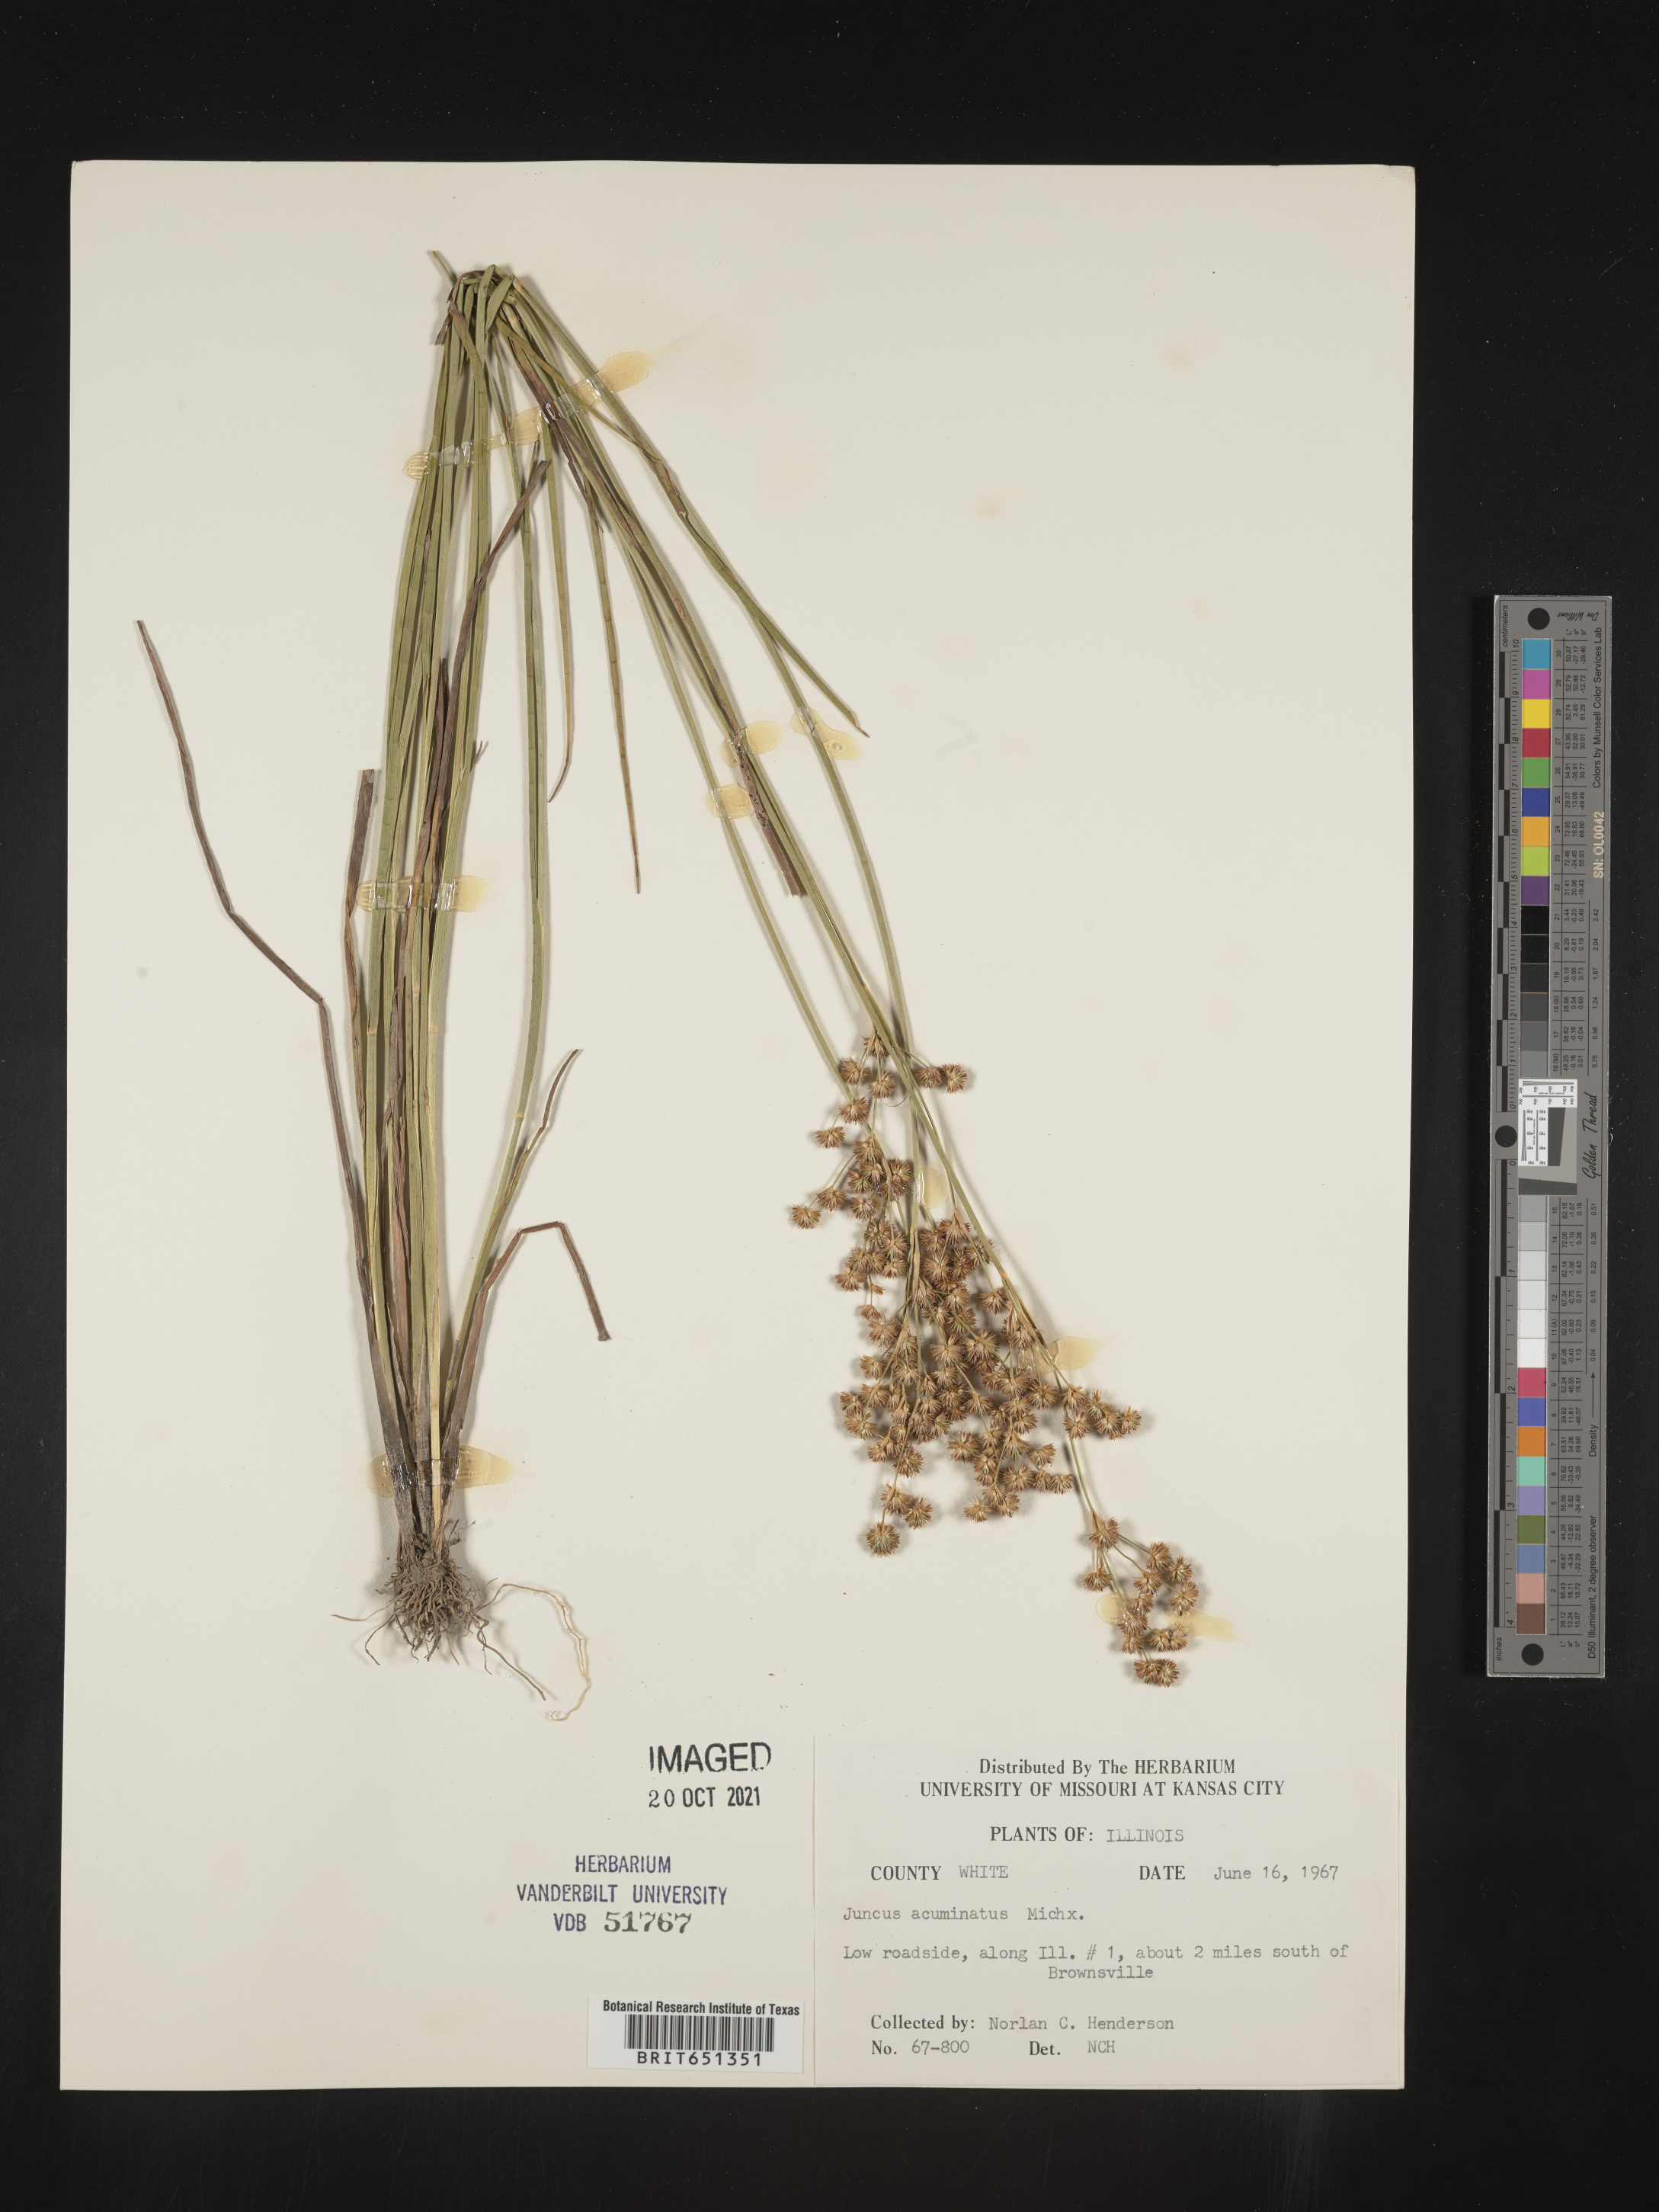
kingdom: Plantae
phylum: Tracheophyta
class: Liliopsida
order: Poales
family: Juncaceae
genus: Juncus
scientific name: Juncus acuminatus
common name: Knotty-leaved rush
